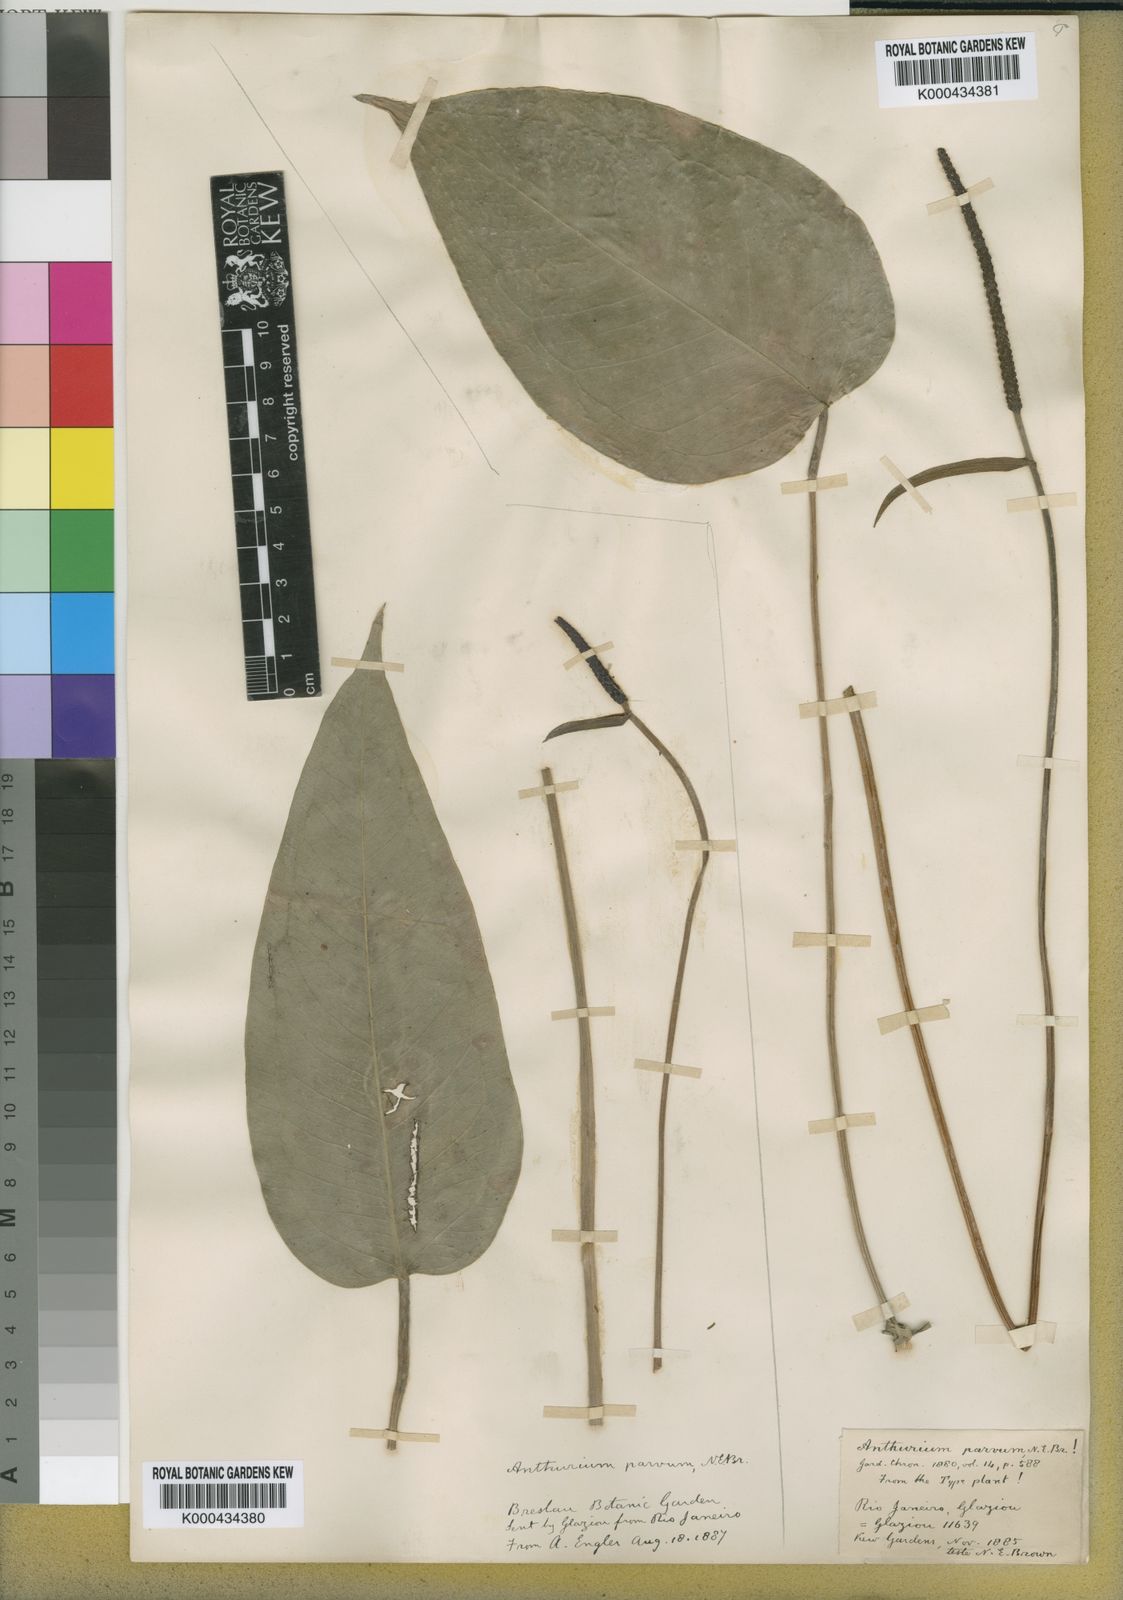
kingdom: Plantae
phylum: Tracheophyta
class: Liliopsida
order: Alismatales
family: Araceae
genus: Anthurium
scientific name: Anthurium augustinum
